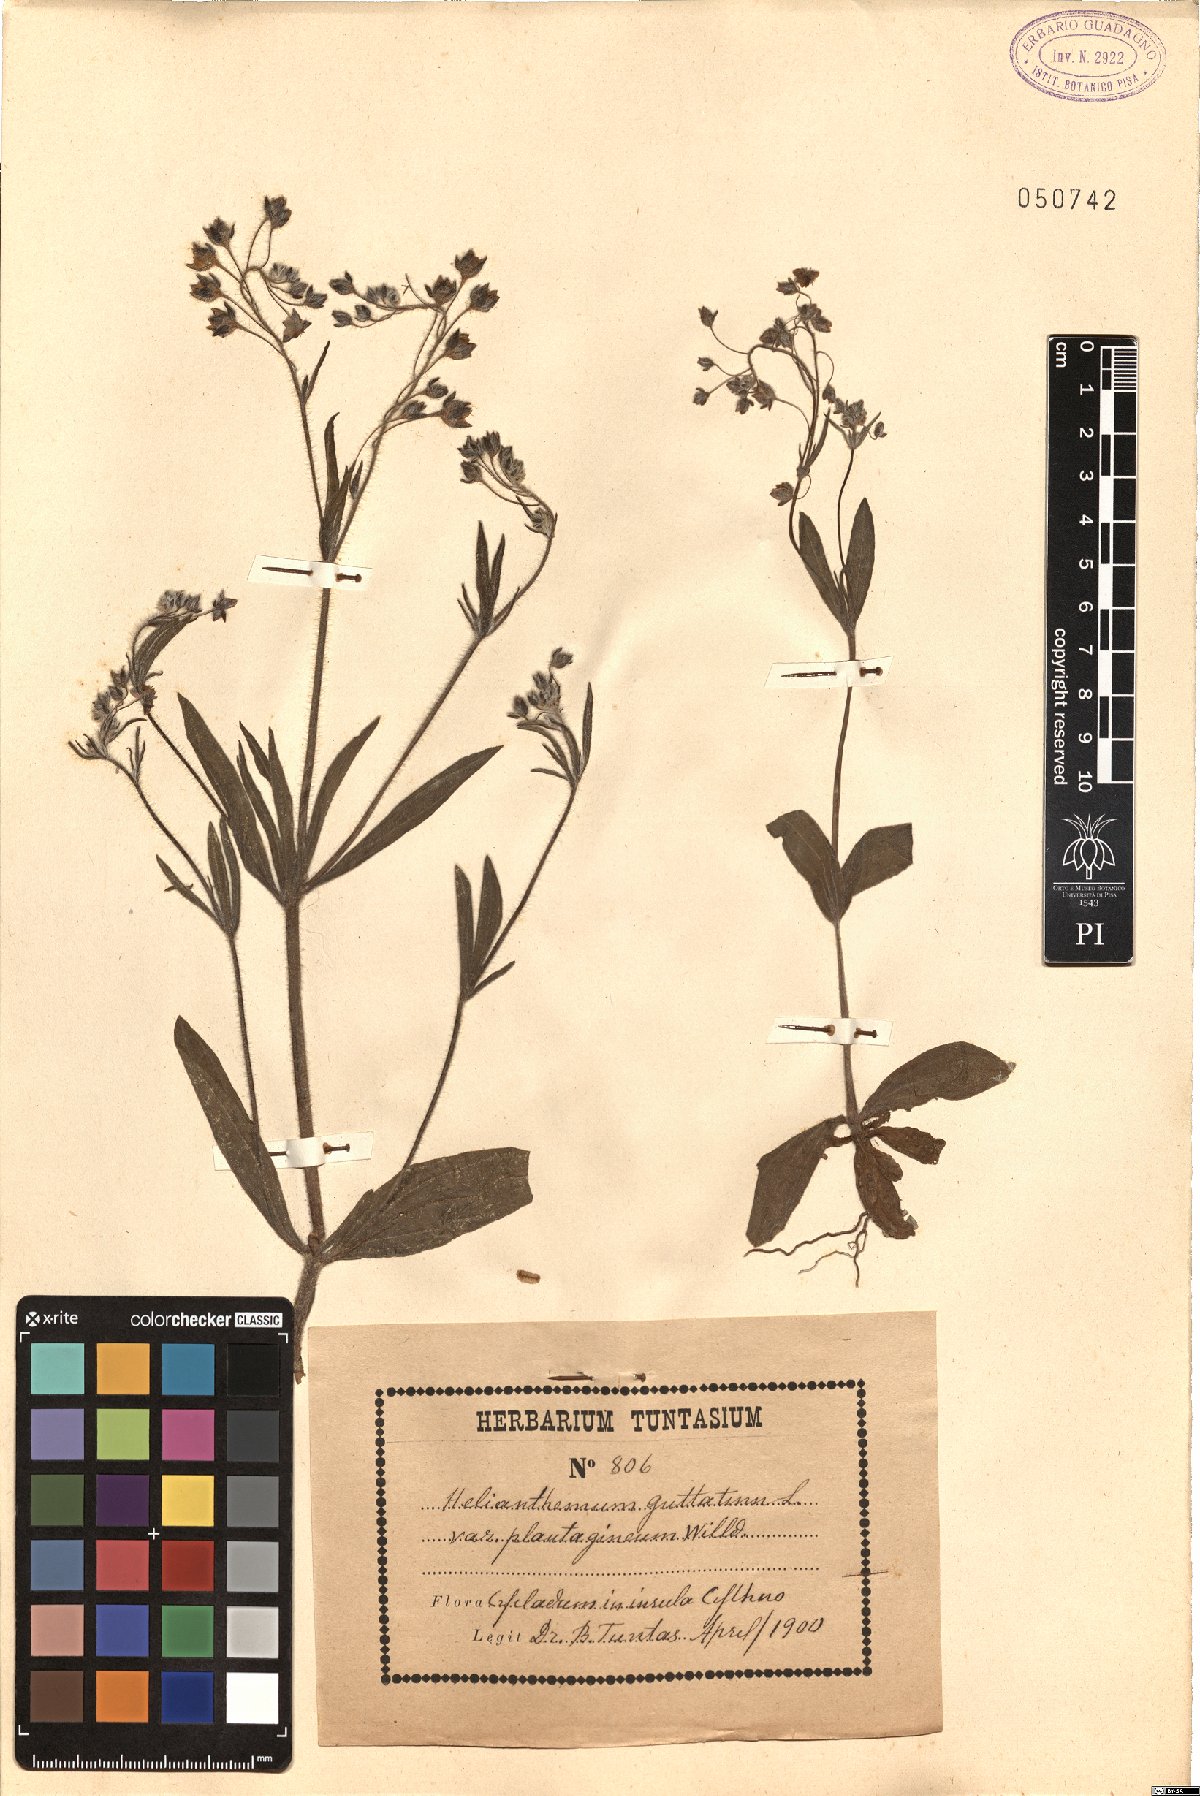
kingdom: Plantae
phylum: Tracheophyta
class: Magnoliopsida
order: Malvales
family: Cistaceae
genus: Tuberaria
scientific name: Tuberaria inconspicua
